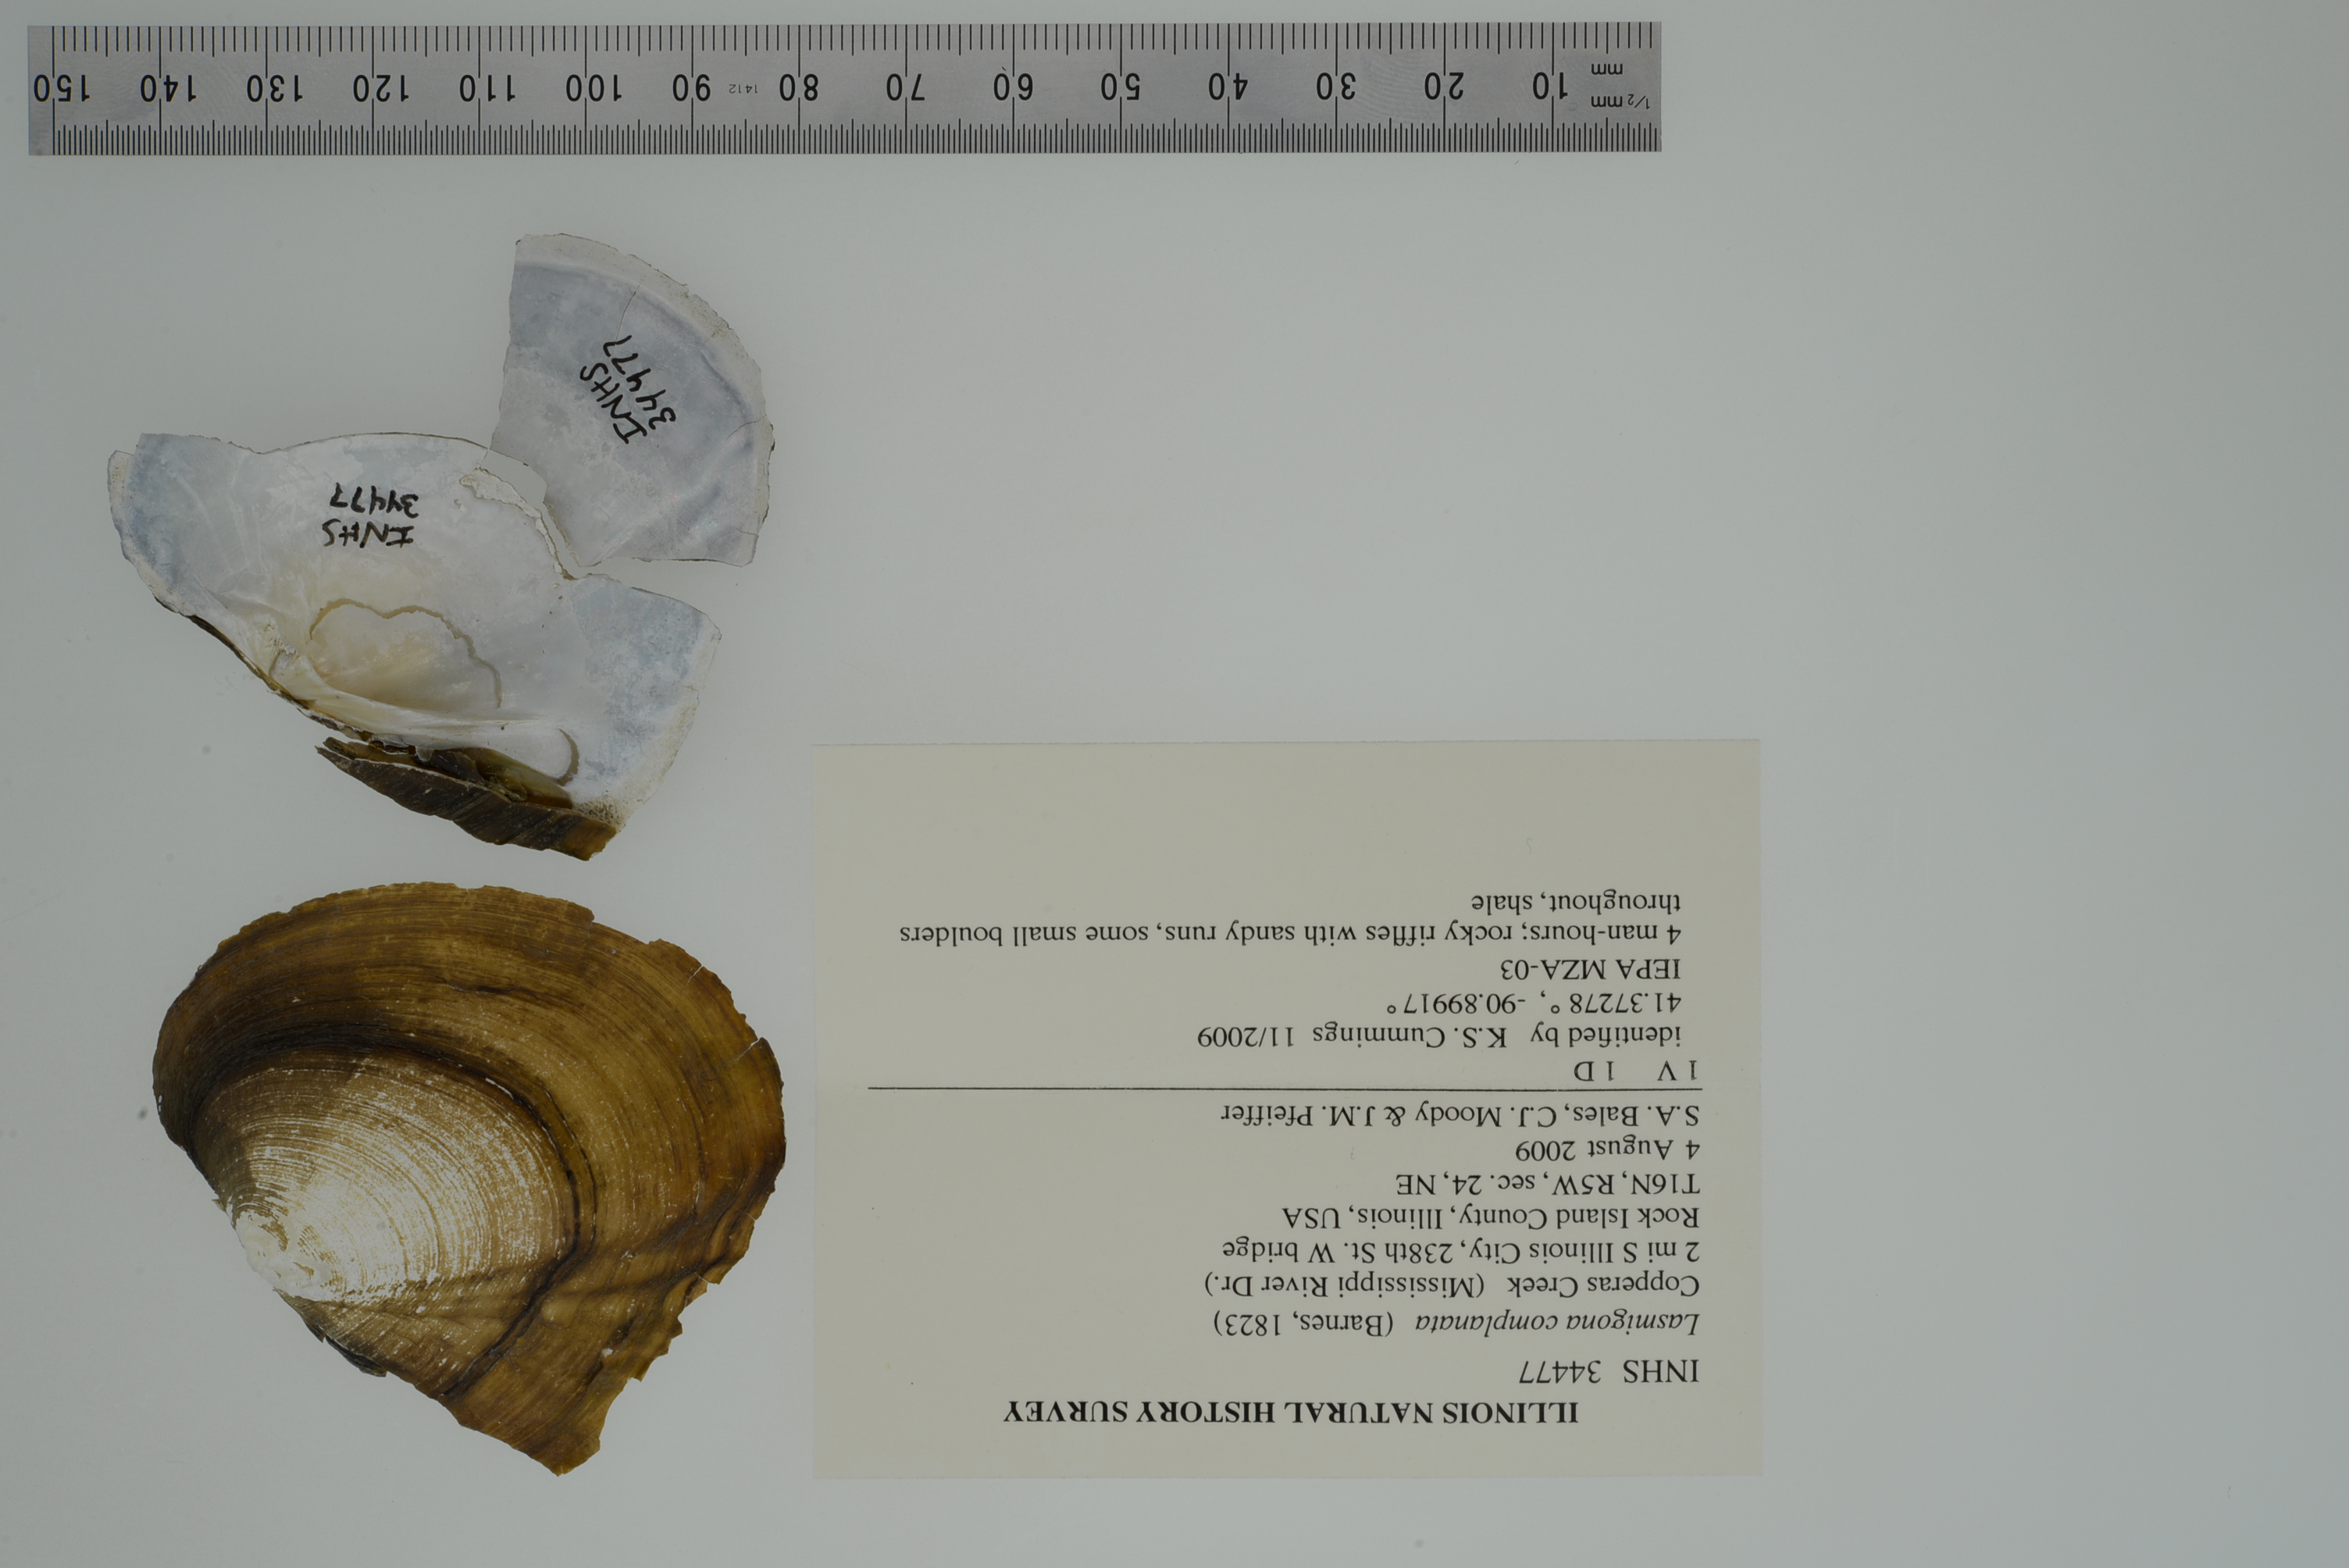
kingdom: Animalia
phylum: Mollusca
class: Bivalvia
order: Unionida
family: Unionidae
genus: Lasmigona
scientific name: Lasmigona complanata
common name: White heelsplitter
